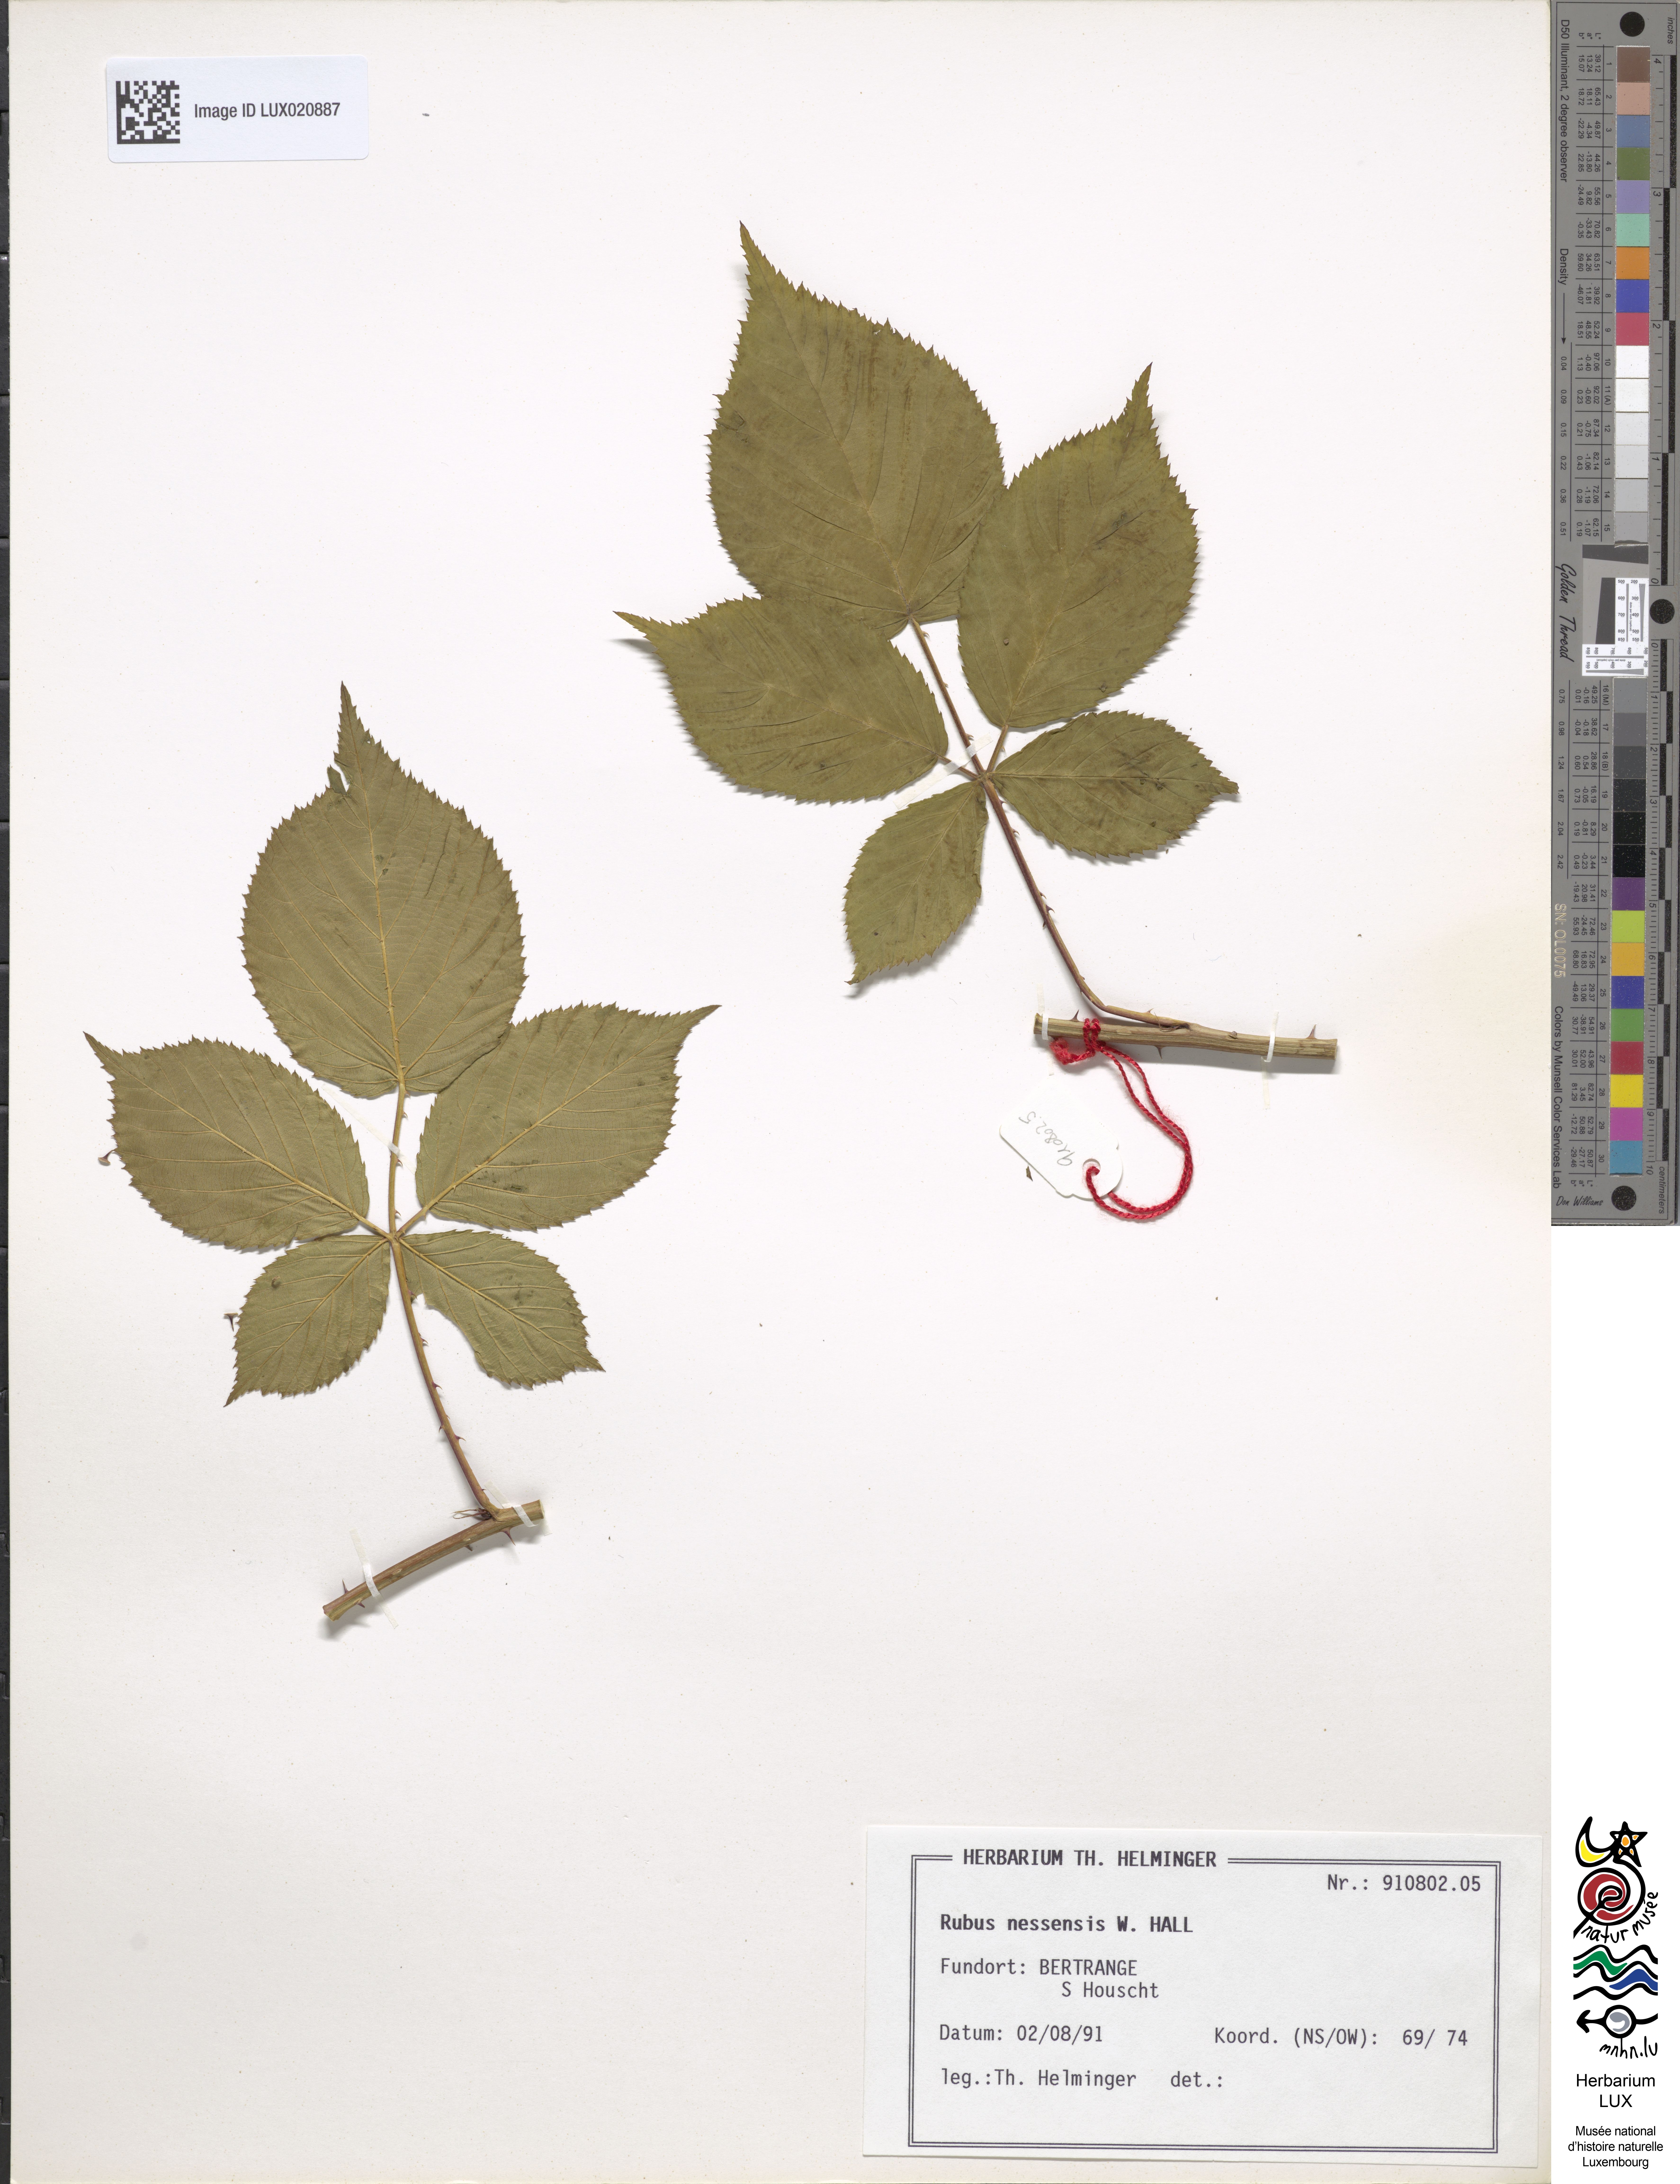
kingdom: Plantae
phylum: Tracheophyta
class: Magnoliopsida
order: Rosales
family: Rosaceae
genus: Rubus
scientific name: Rubus polonicus
